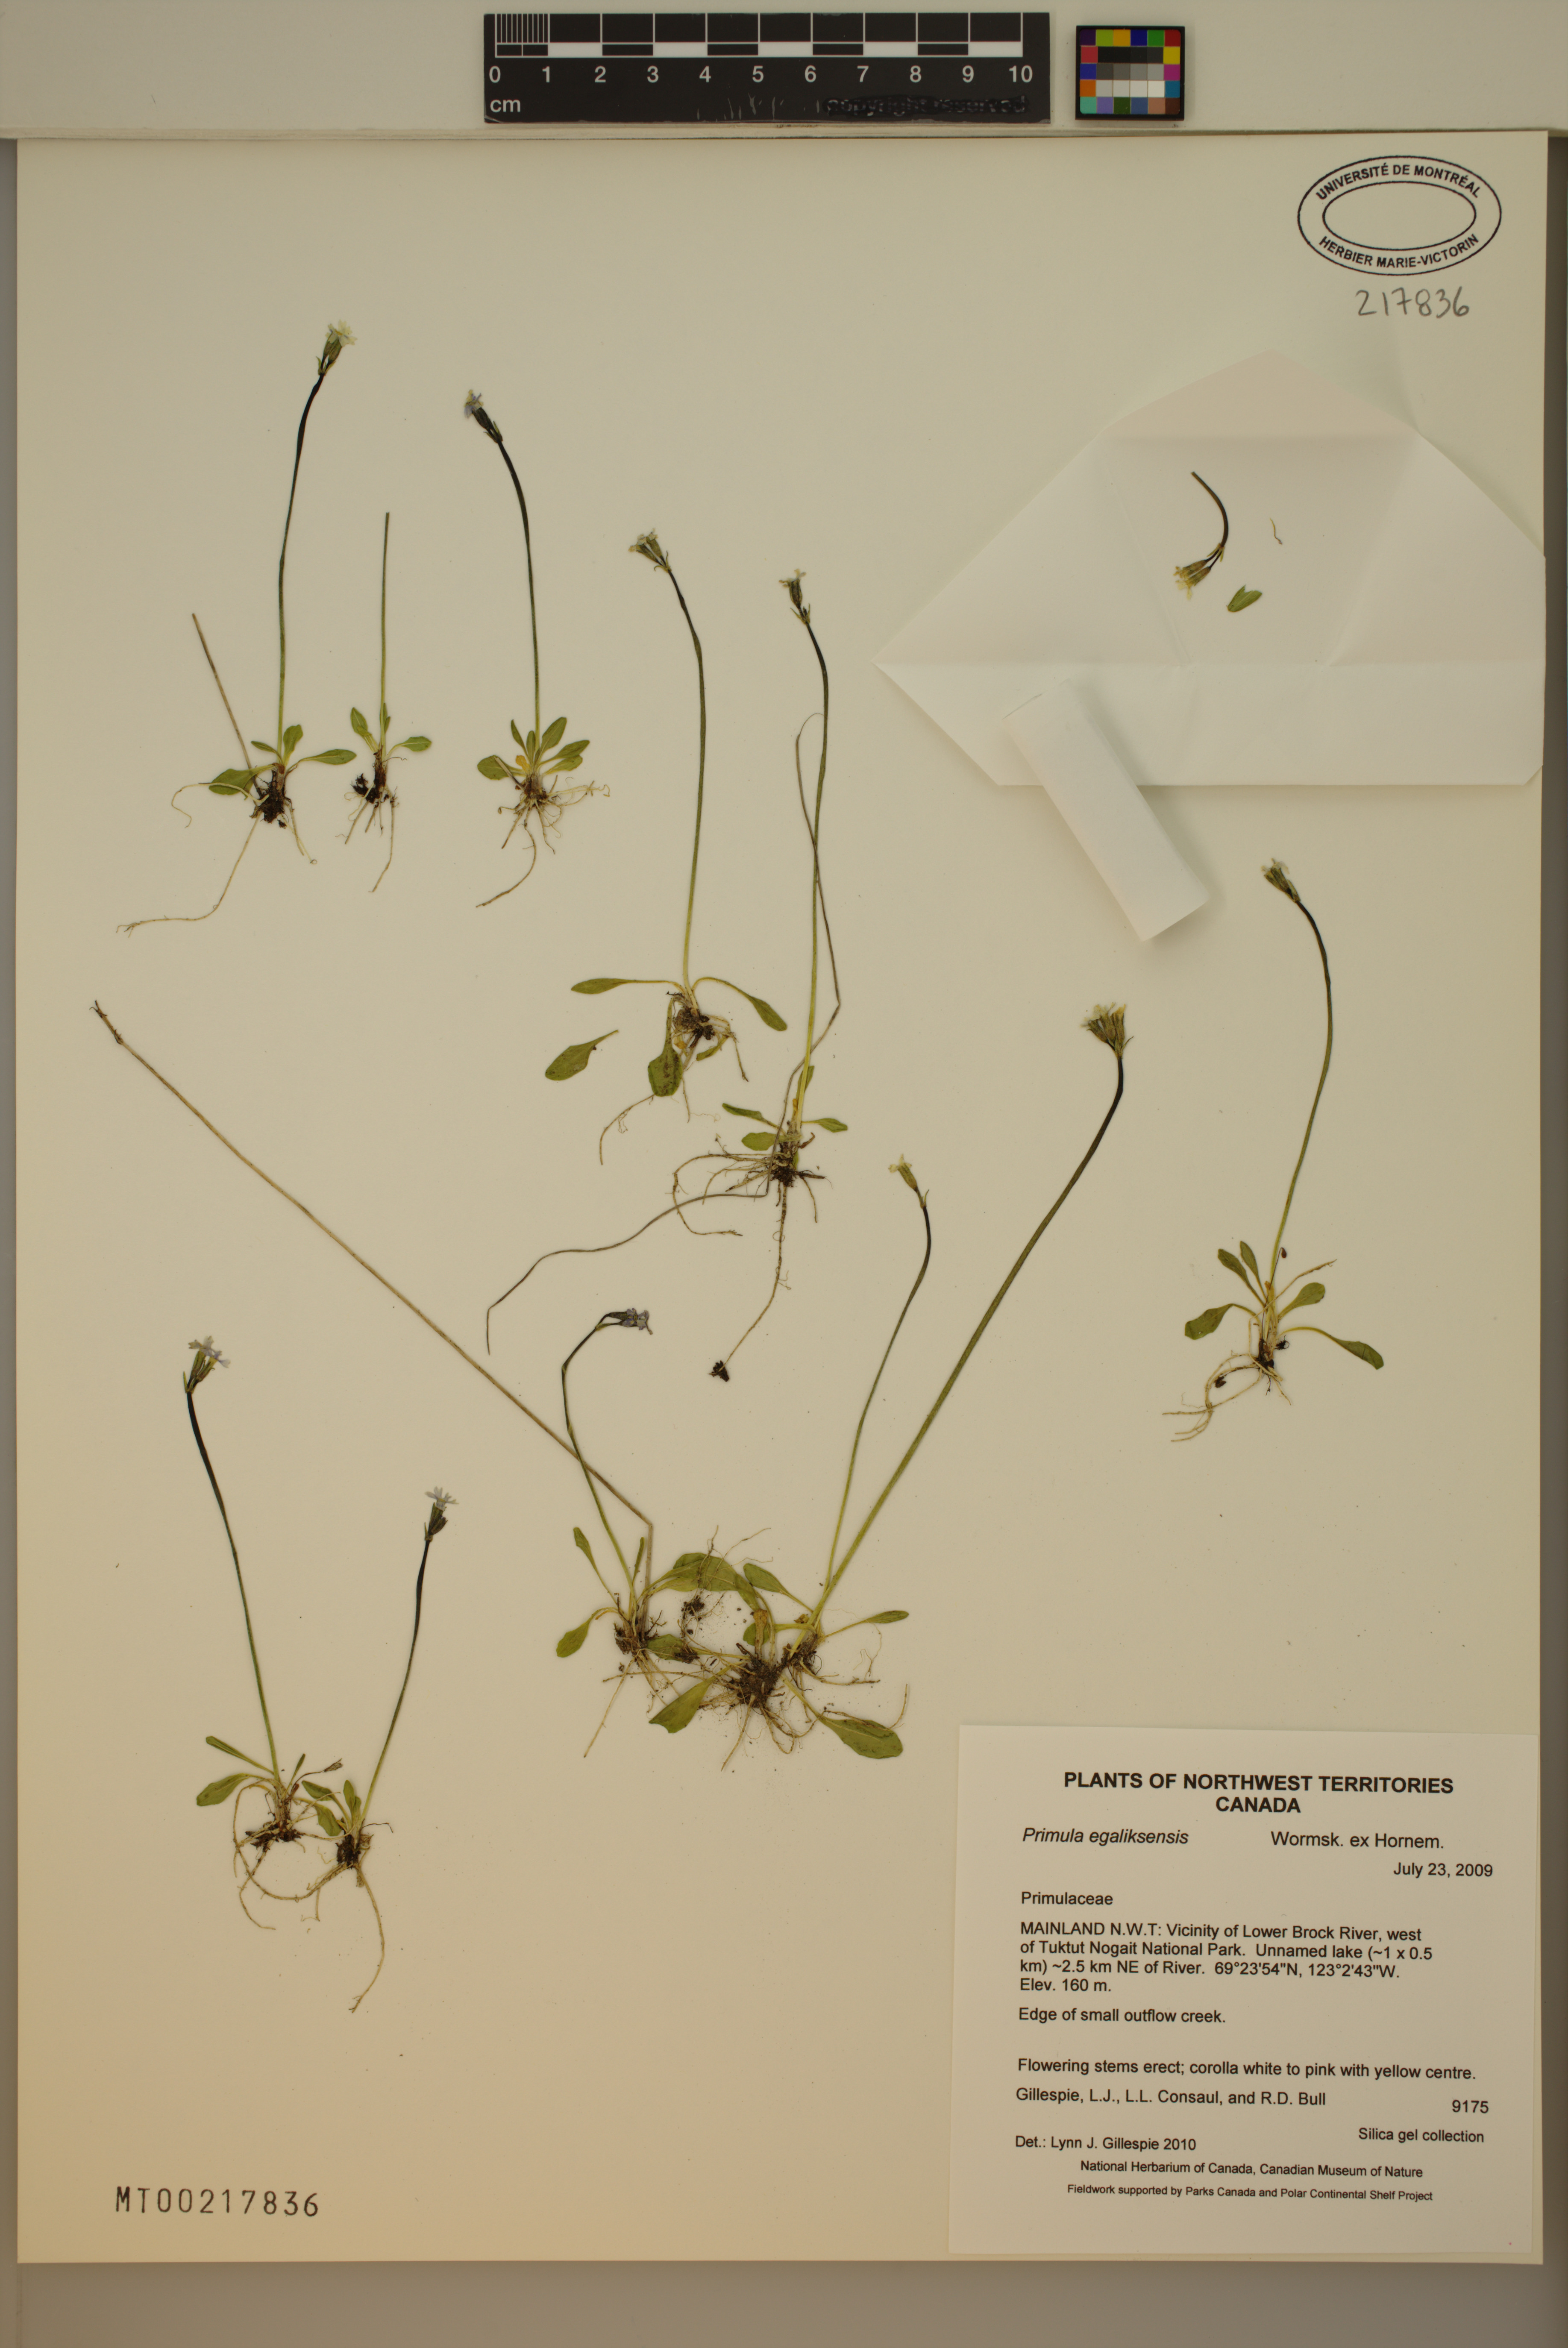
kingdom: Plantae
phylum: Tracheophyta
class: Magnoliopsida
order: Ericales
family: Primulaceae
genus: Primula
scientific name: Primula egaliksensis
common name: Greenland primrose
